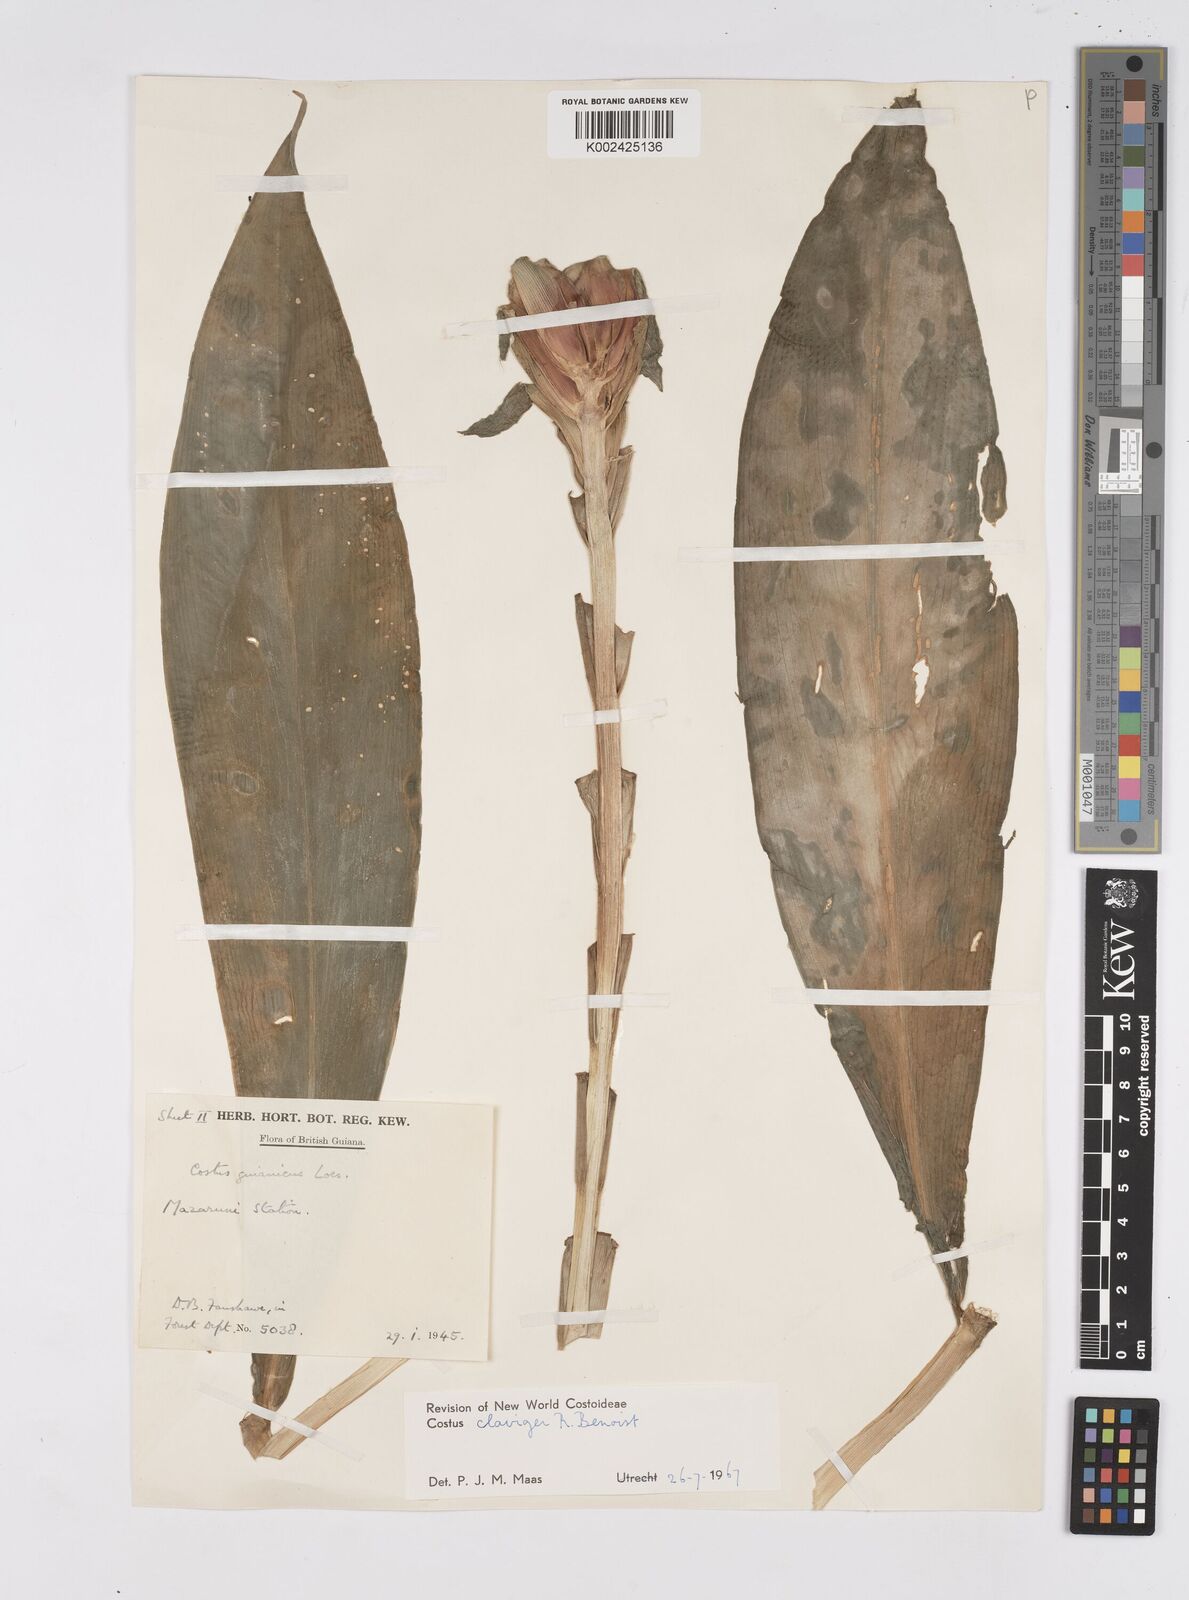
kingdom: Plantae
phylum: Tracheophyta
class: Liliopsida
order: Zingiberales
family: Costaceae
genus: Costus
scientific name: Costus claviger
